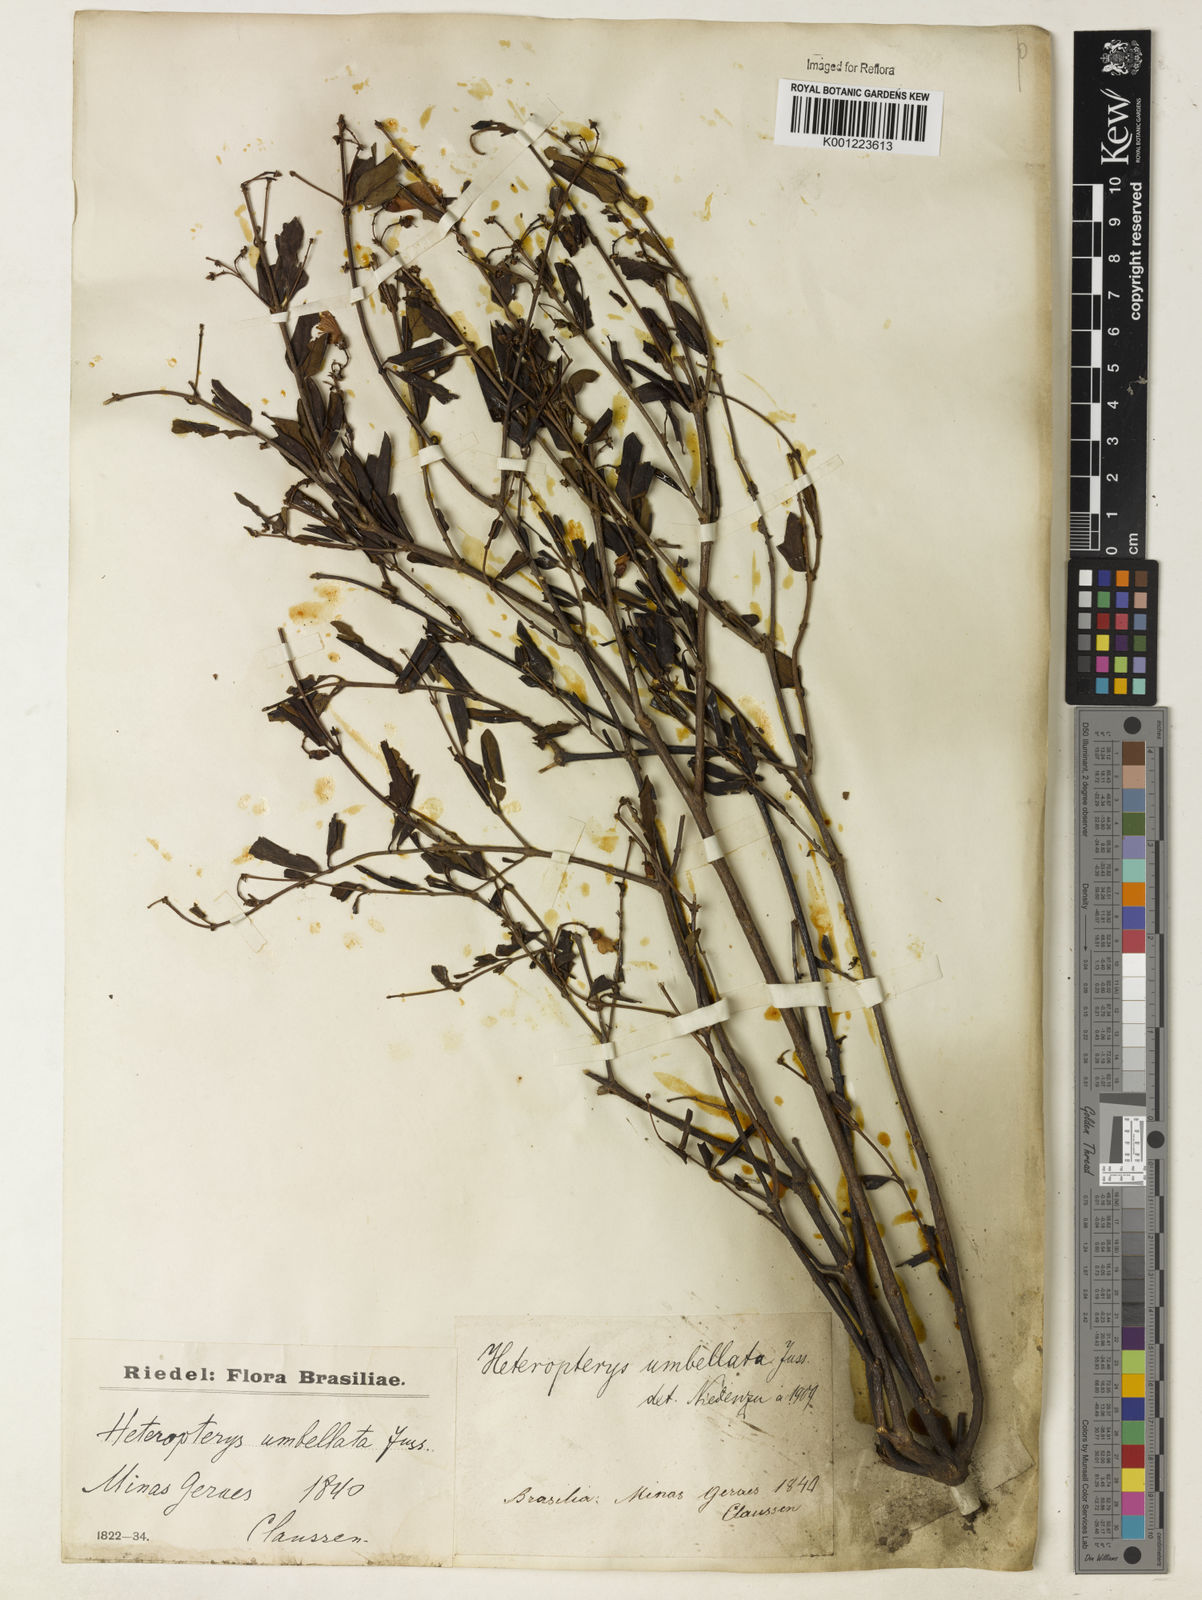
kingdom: Plantae
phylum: Tracheophyta
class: Magnoliopsida
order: Malpighiales
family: Malpighiaceae
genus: Heteropterys
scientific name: Heteropterys umbellata
